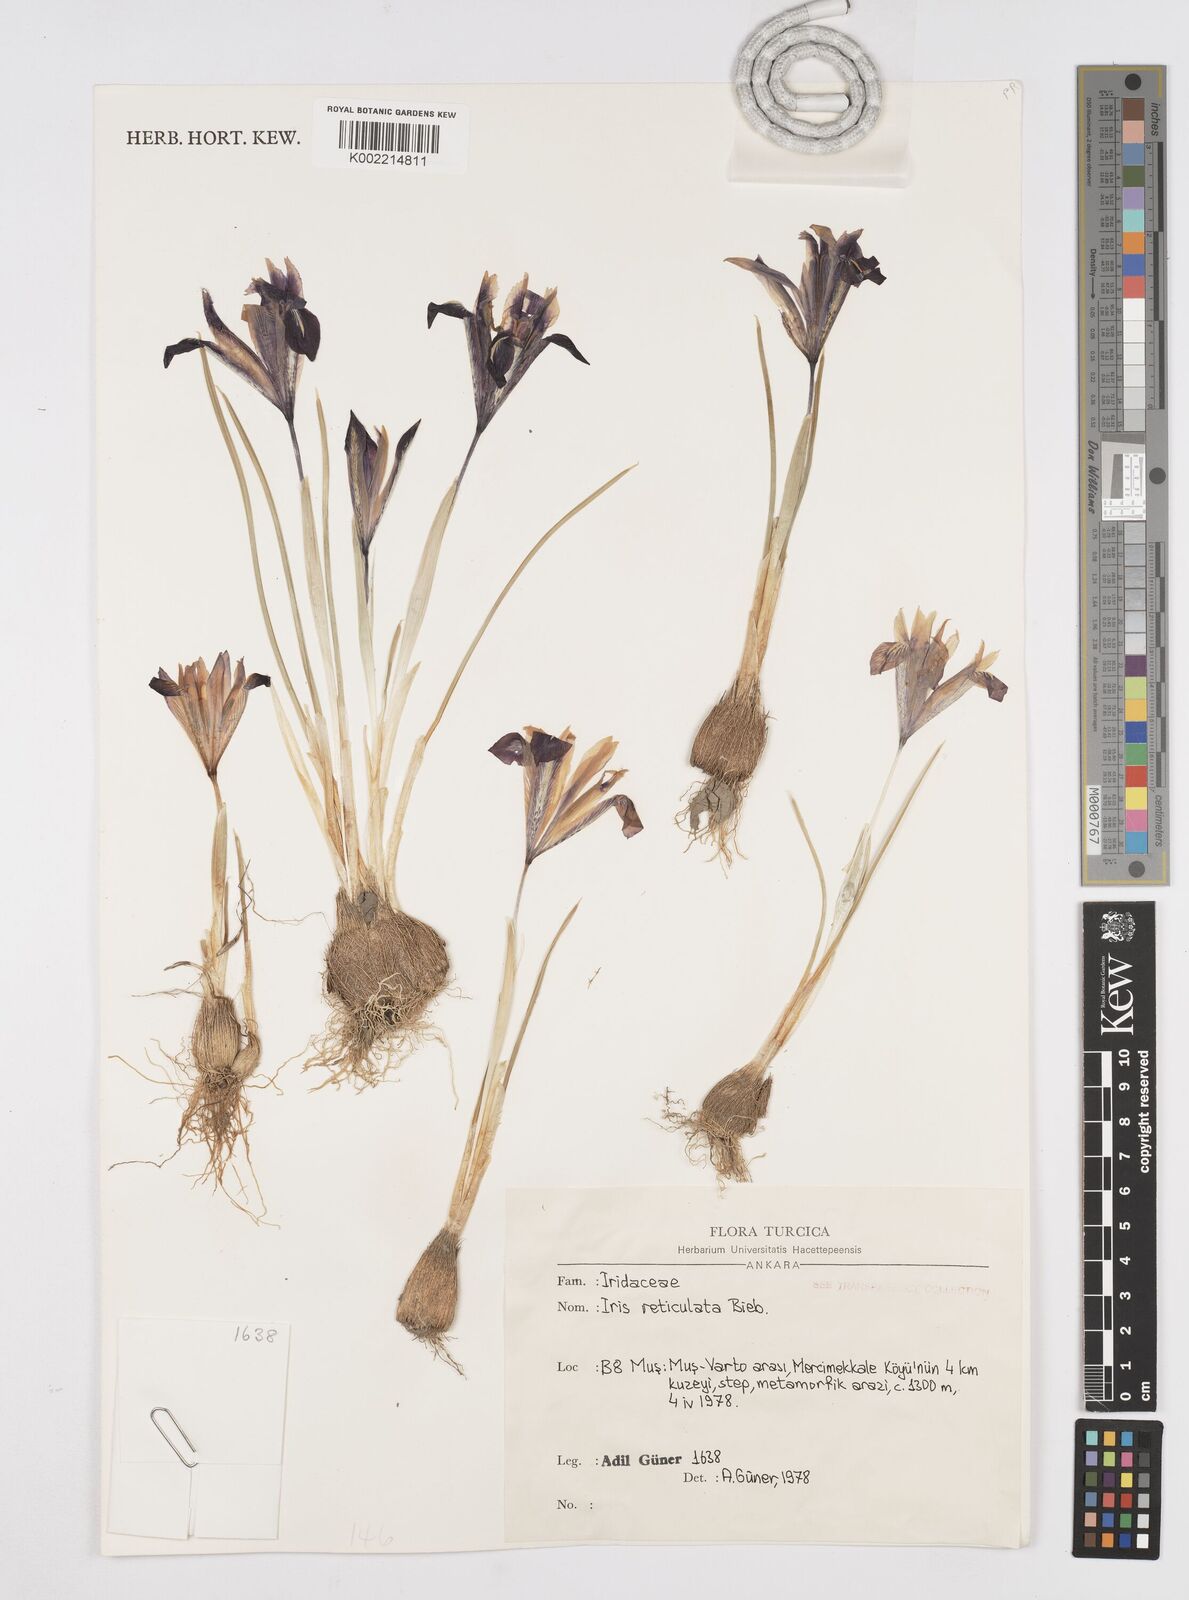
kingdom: Plantae
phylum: Tracheophyta
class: Liliopsida
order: Asparagales
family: Iridaceae
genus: Iris
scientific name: Iris reticulata
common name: Netted iris
